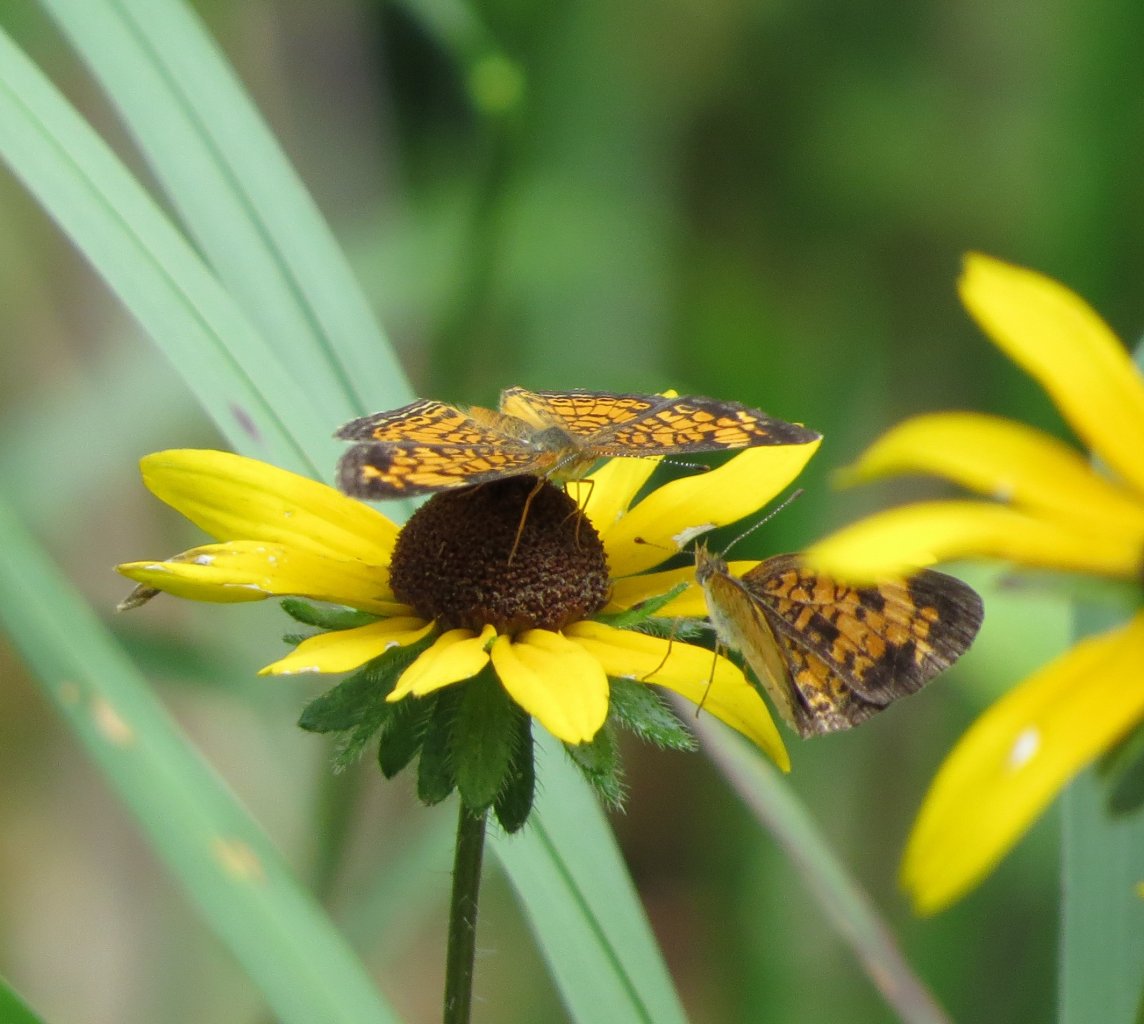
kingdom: Animalia
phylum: Arthropoda
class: Insecta
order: Lepidoptera
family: Nymphalidae
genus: Phyciodes
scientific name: Phyciodes tharos
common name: Pearl Crescent
